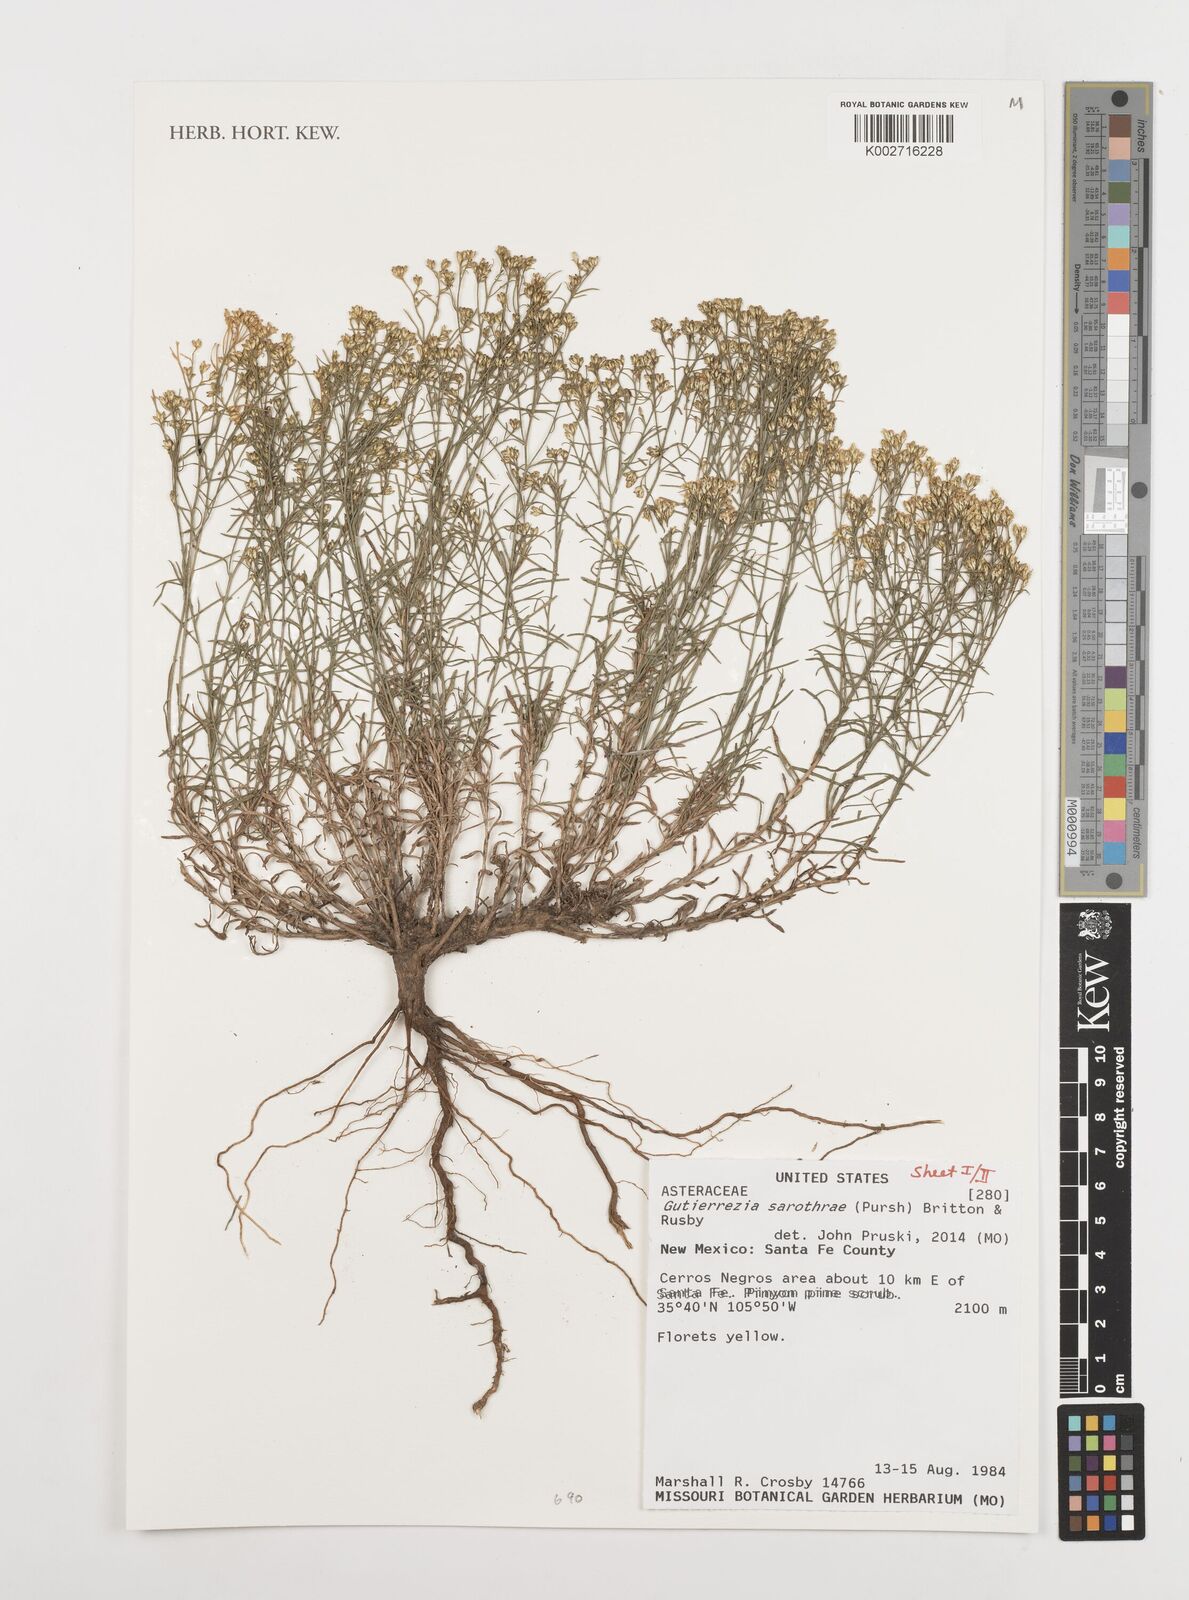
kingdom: Plantae
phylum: Tracheophyta
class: Magnoliopsida
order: Asterales
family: Asteraceae
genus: Gutierrezia
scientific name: Gutierrezia sarothrae
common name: Broom snakeweed
